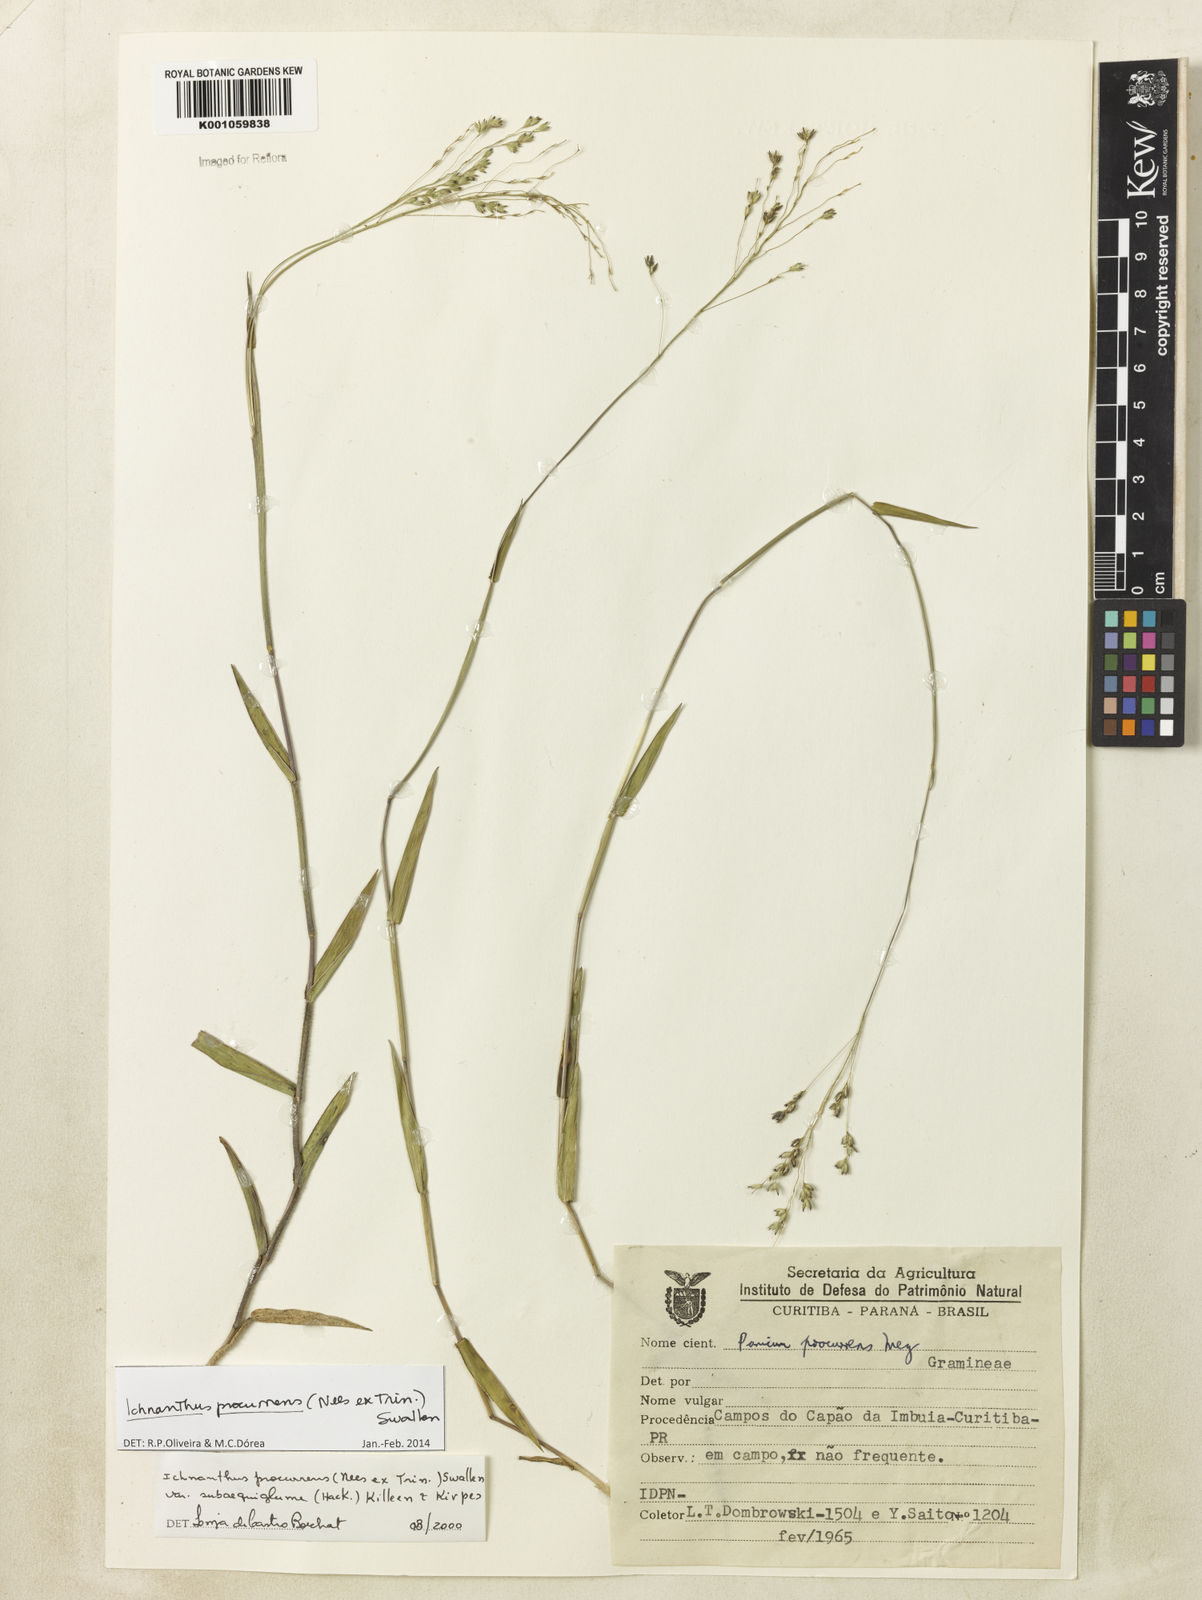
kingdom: Plantae
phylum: Tracheophyta
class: Liliopsida
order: Poales
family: Poaceae
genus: Oedochloa
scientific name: Oedochloa procurrens
